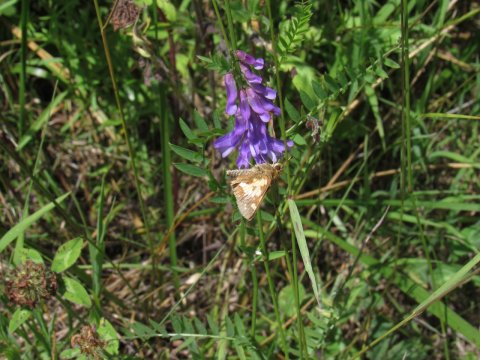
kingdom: Animalia
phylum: Arthropoda
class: Insecta
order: Lepidoptera
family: Hesperiidae
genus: Polites
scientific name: Polites coras
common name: Peck's Skipper
